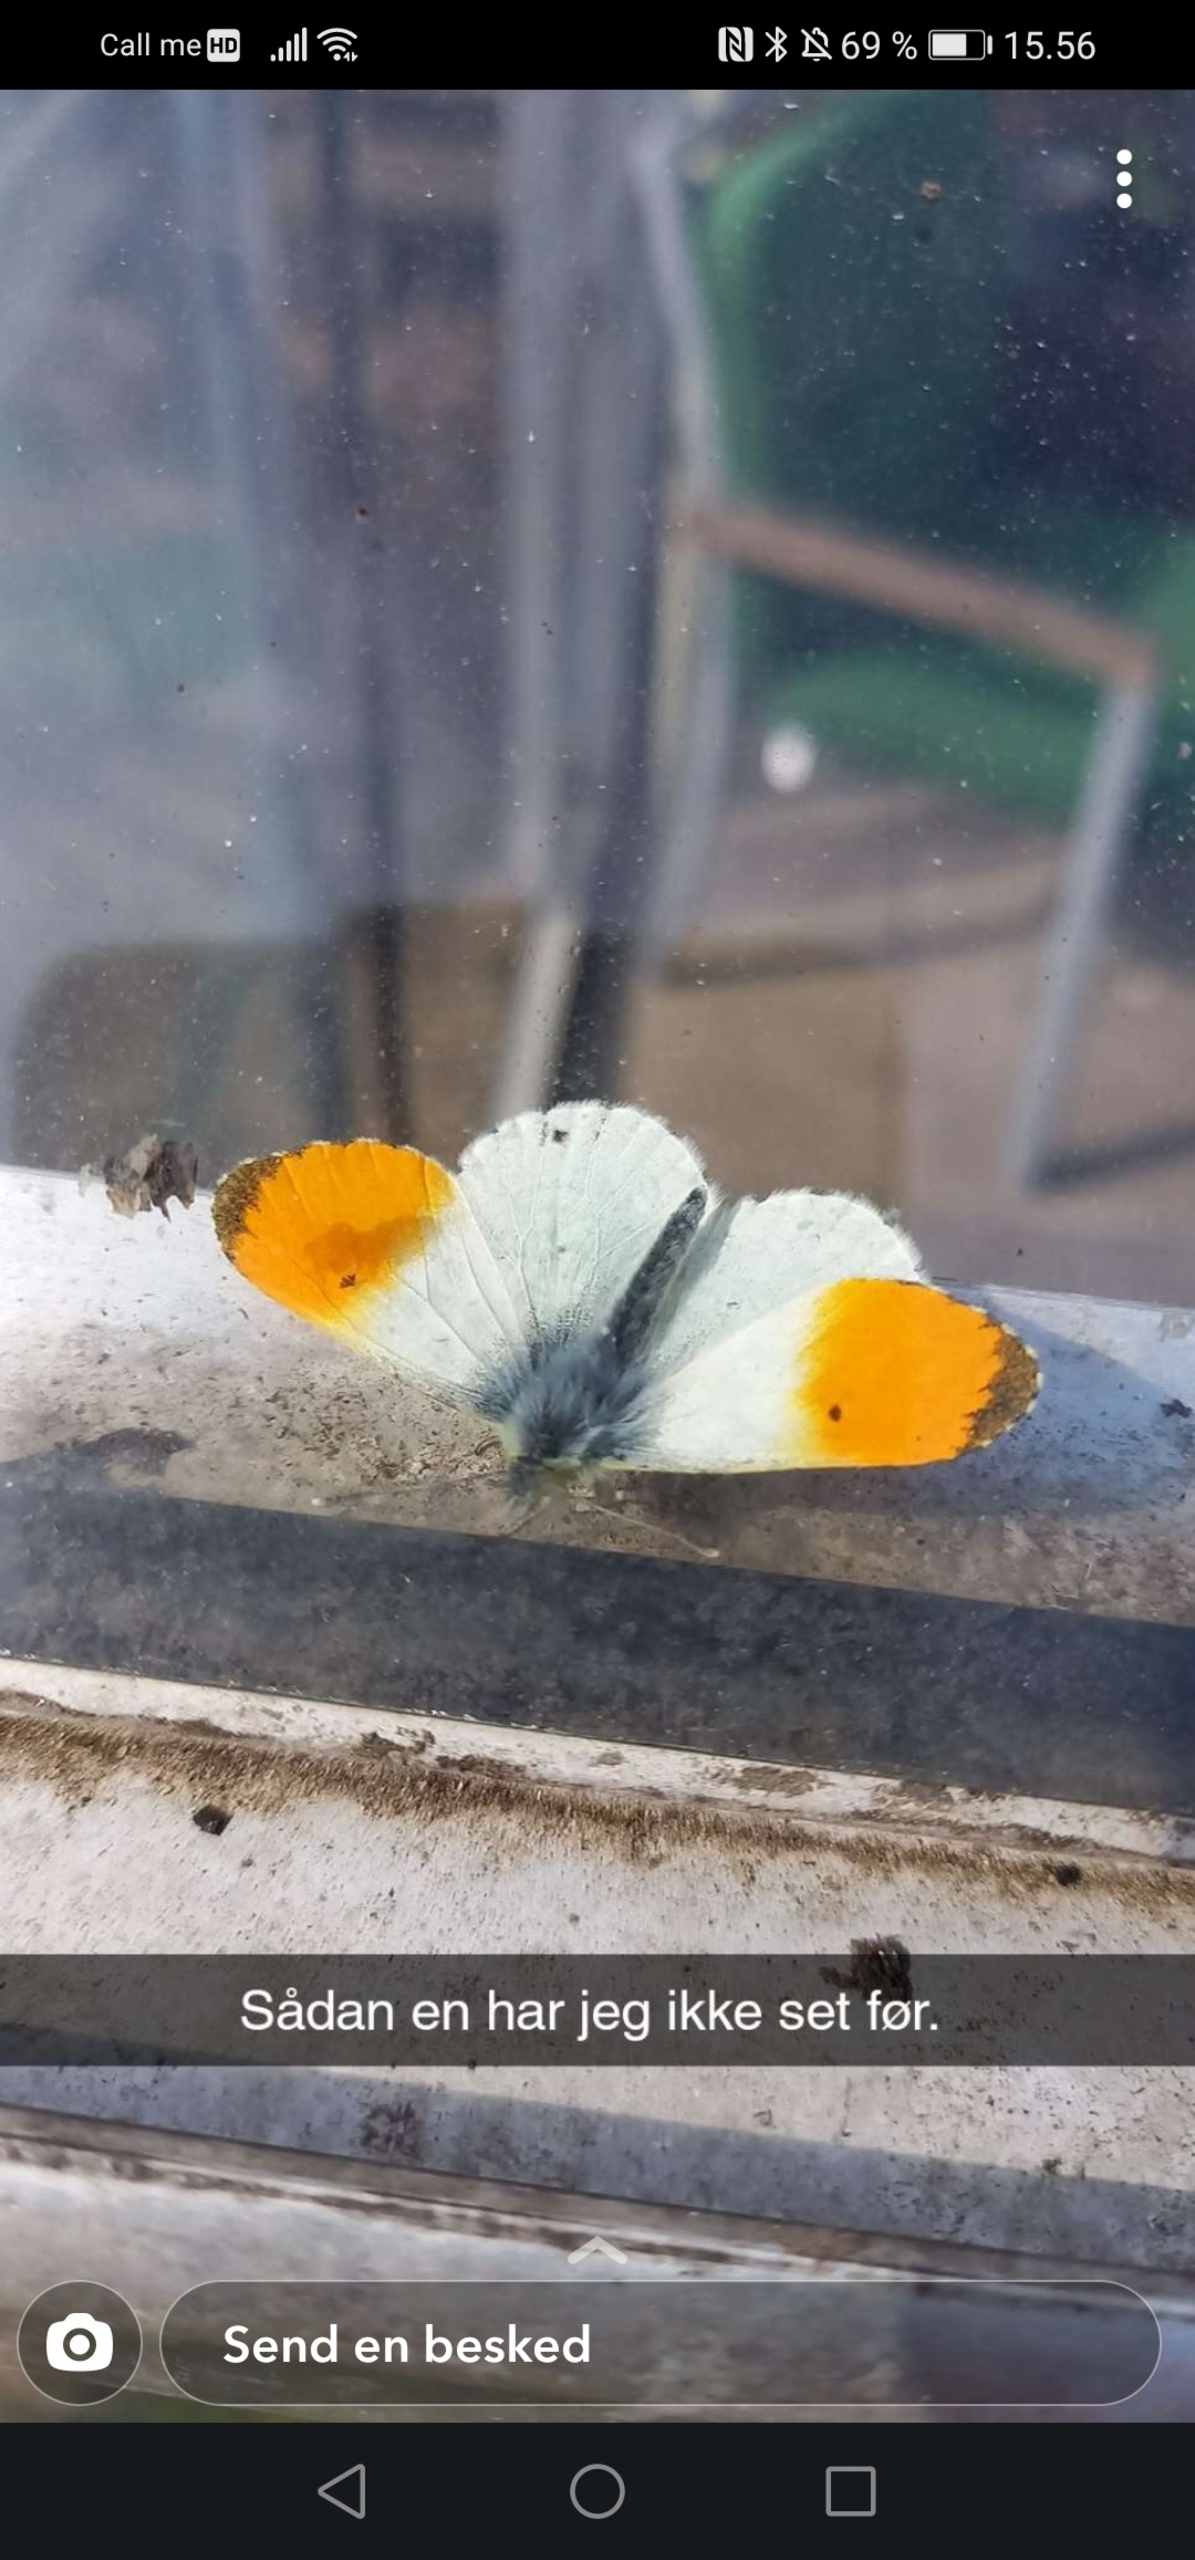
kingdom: Animalia
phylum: Arthropoda
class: Insecta
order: Lepidoptera
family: Pieridae
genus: Anthocharis
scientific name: Anthocharis cardamines
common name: Aurora
